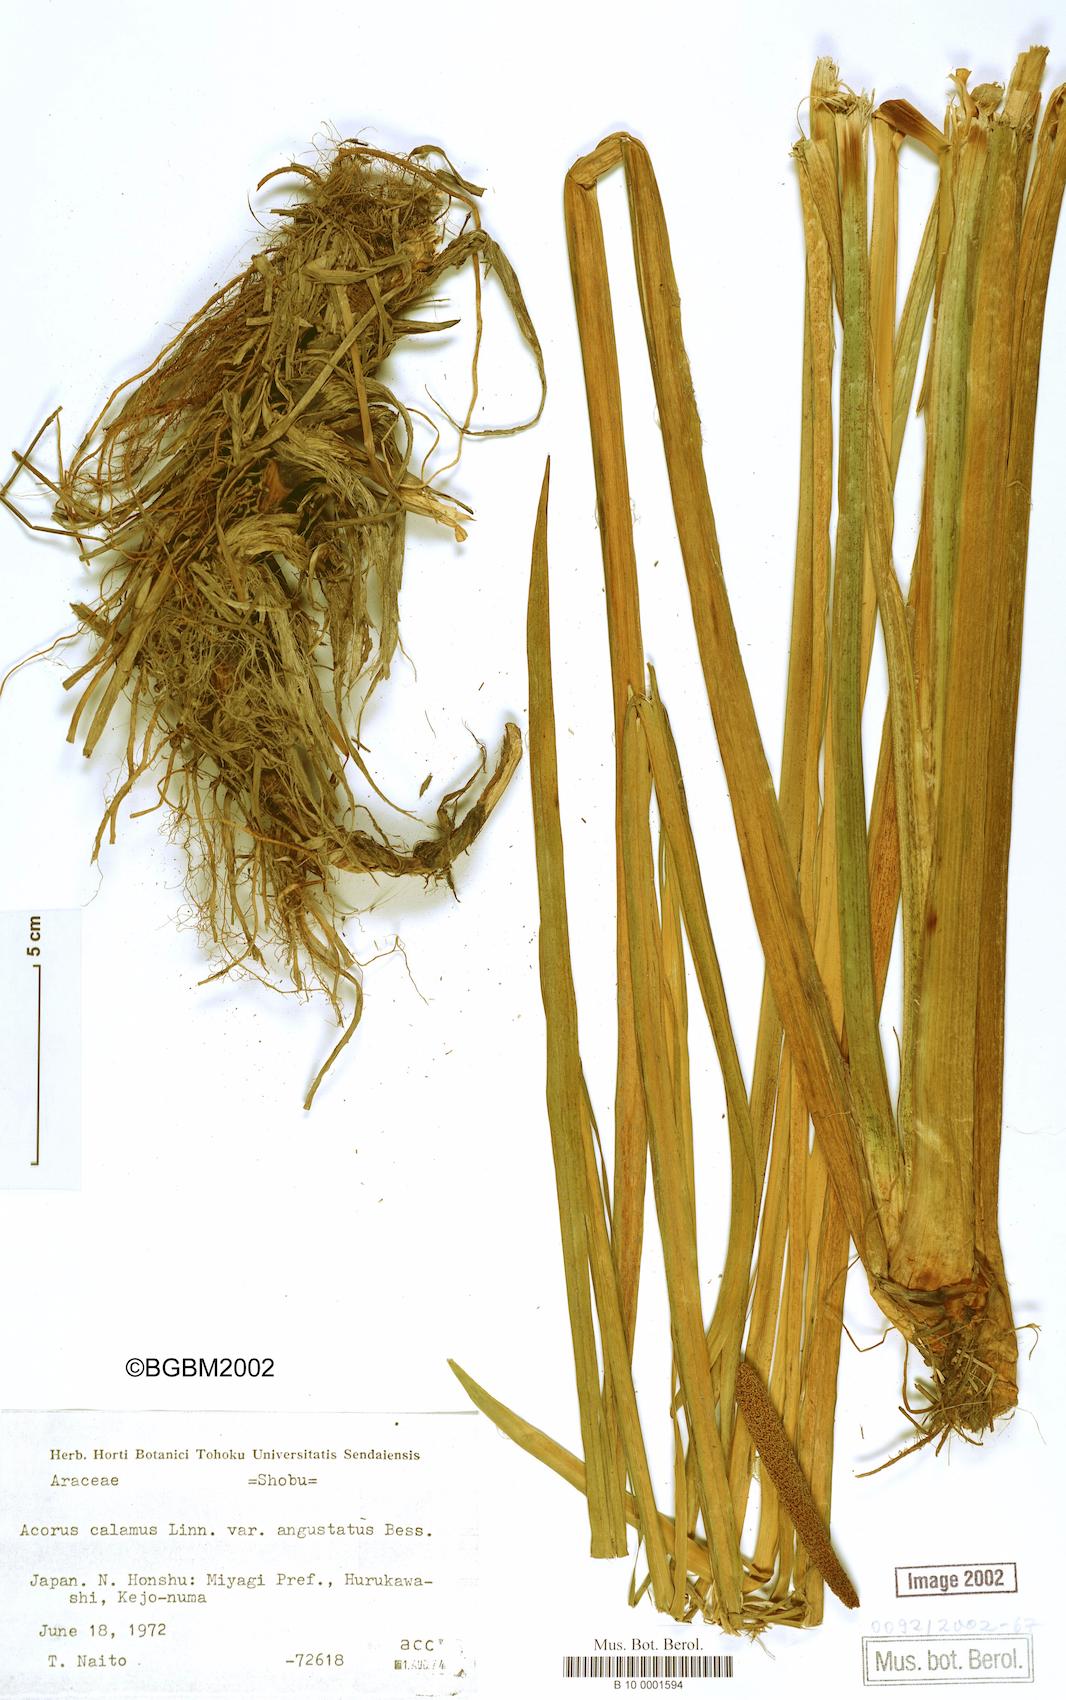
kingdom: Plantae
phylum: Tracheophyta
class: Liliopsida
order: Acorales
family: Acoraceae
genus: Acorus
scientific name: Acorus calamus
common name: Sweet-flag
